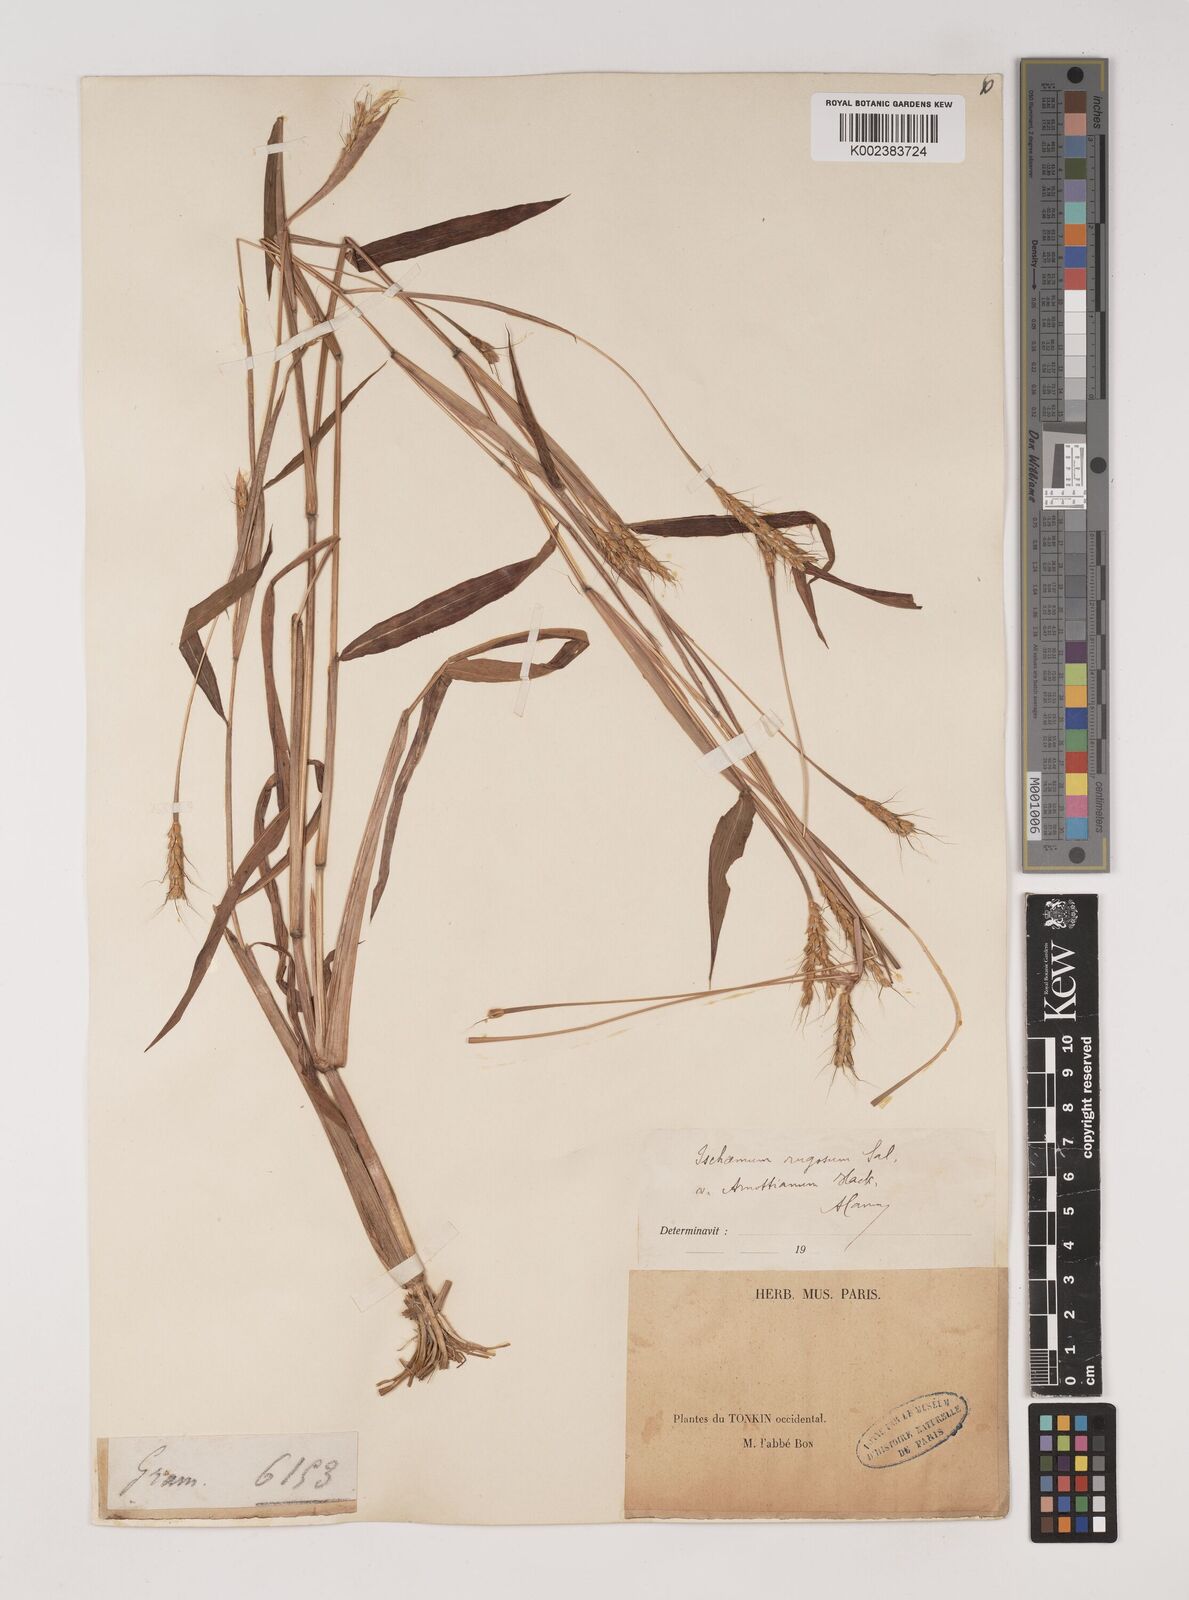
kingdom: Plantae
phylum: Tracheophyta
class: Liliopsida
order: Poales
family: Poaceae
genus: Ischaemum
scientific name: Ischaemum rugosum
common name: Saramatta grass
